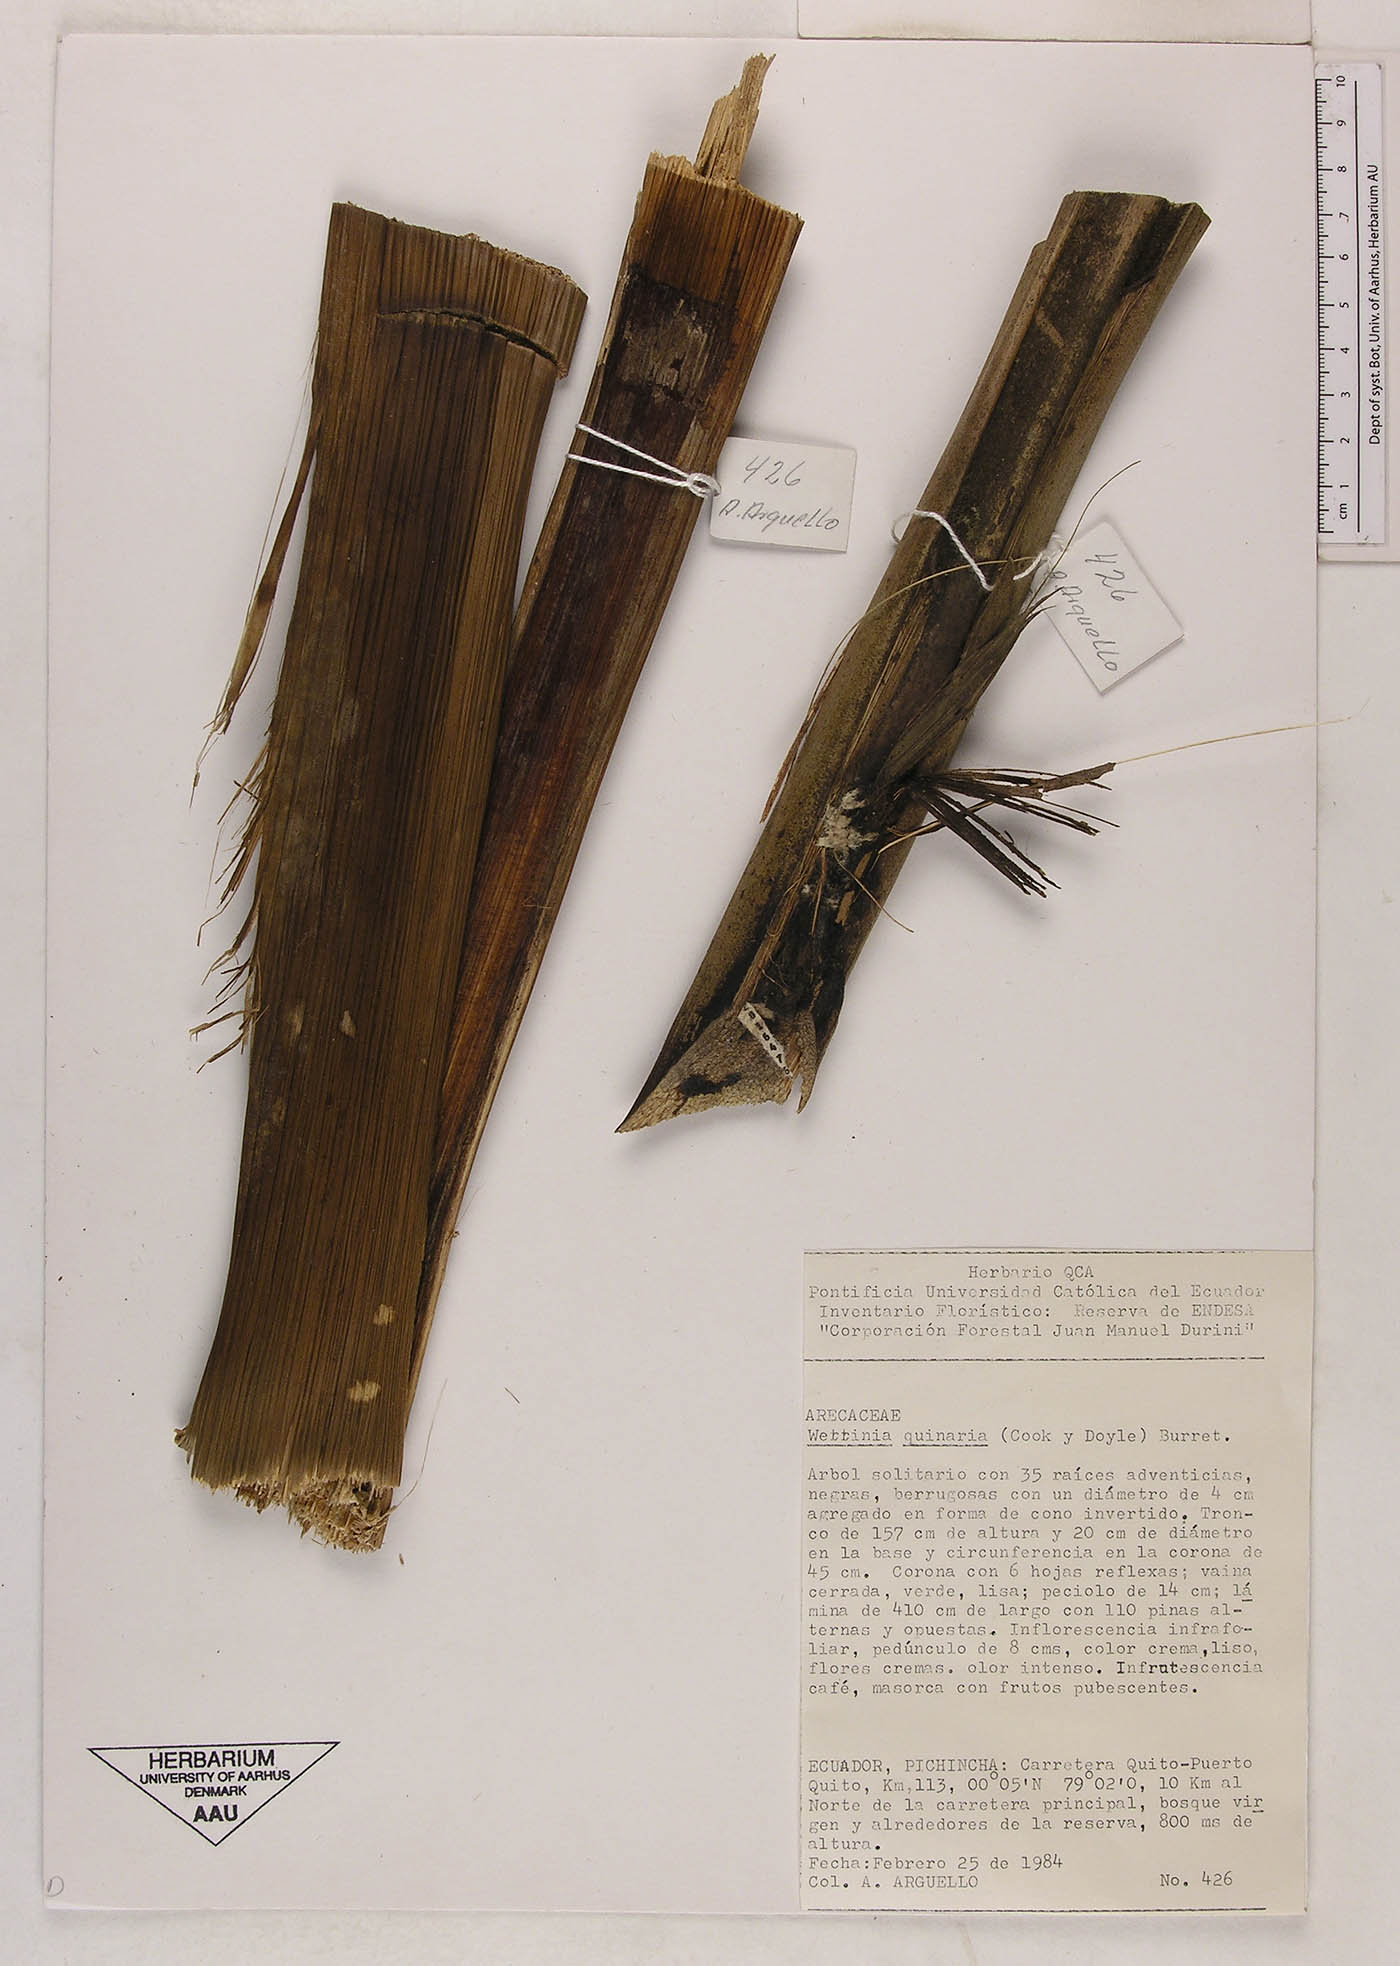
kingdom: Plantae
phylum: Tracheophyta
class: Liliopsida
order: Arecales
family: Arecaceae
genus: Wettinia
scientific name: Wettinia quinaria
